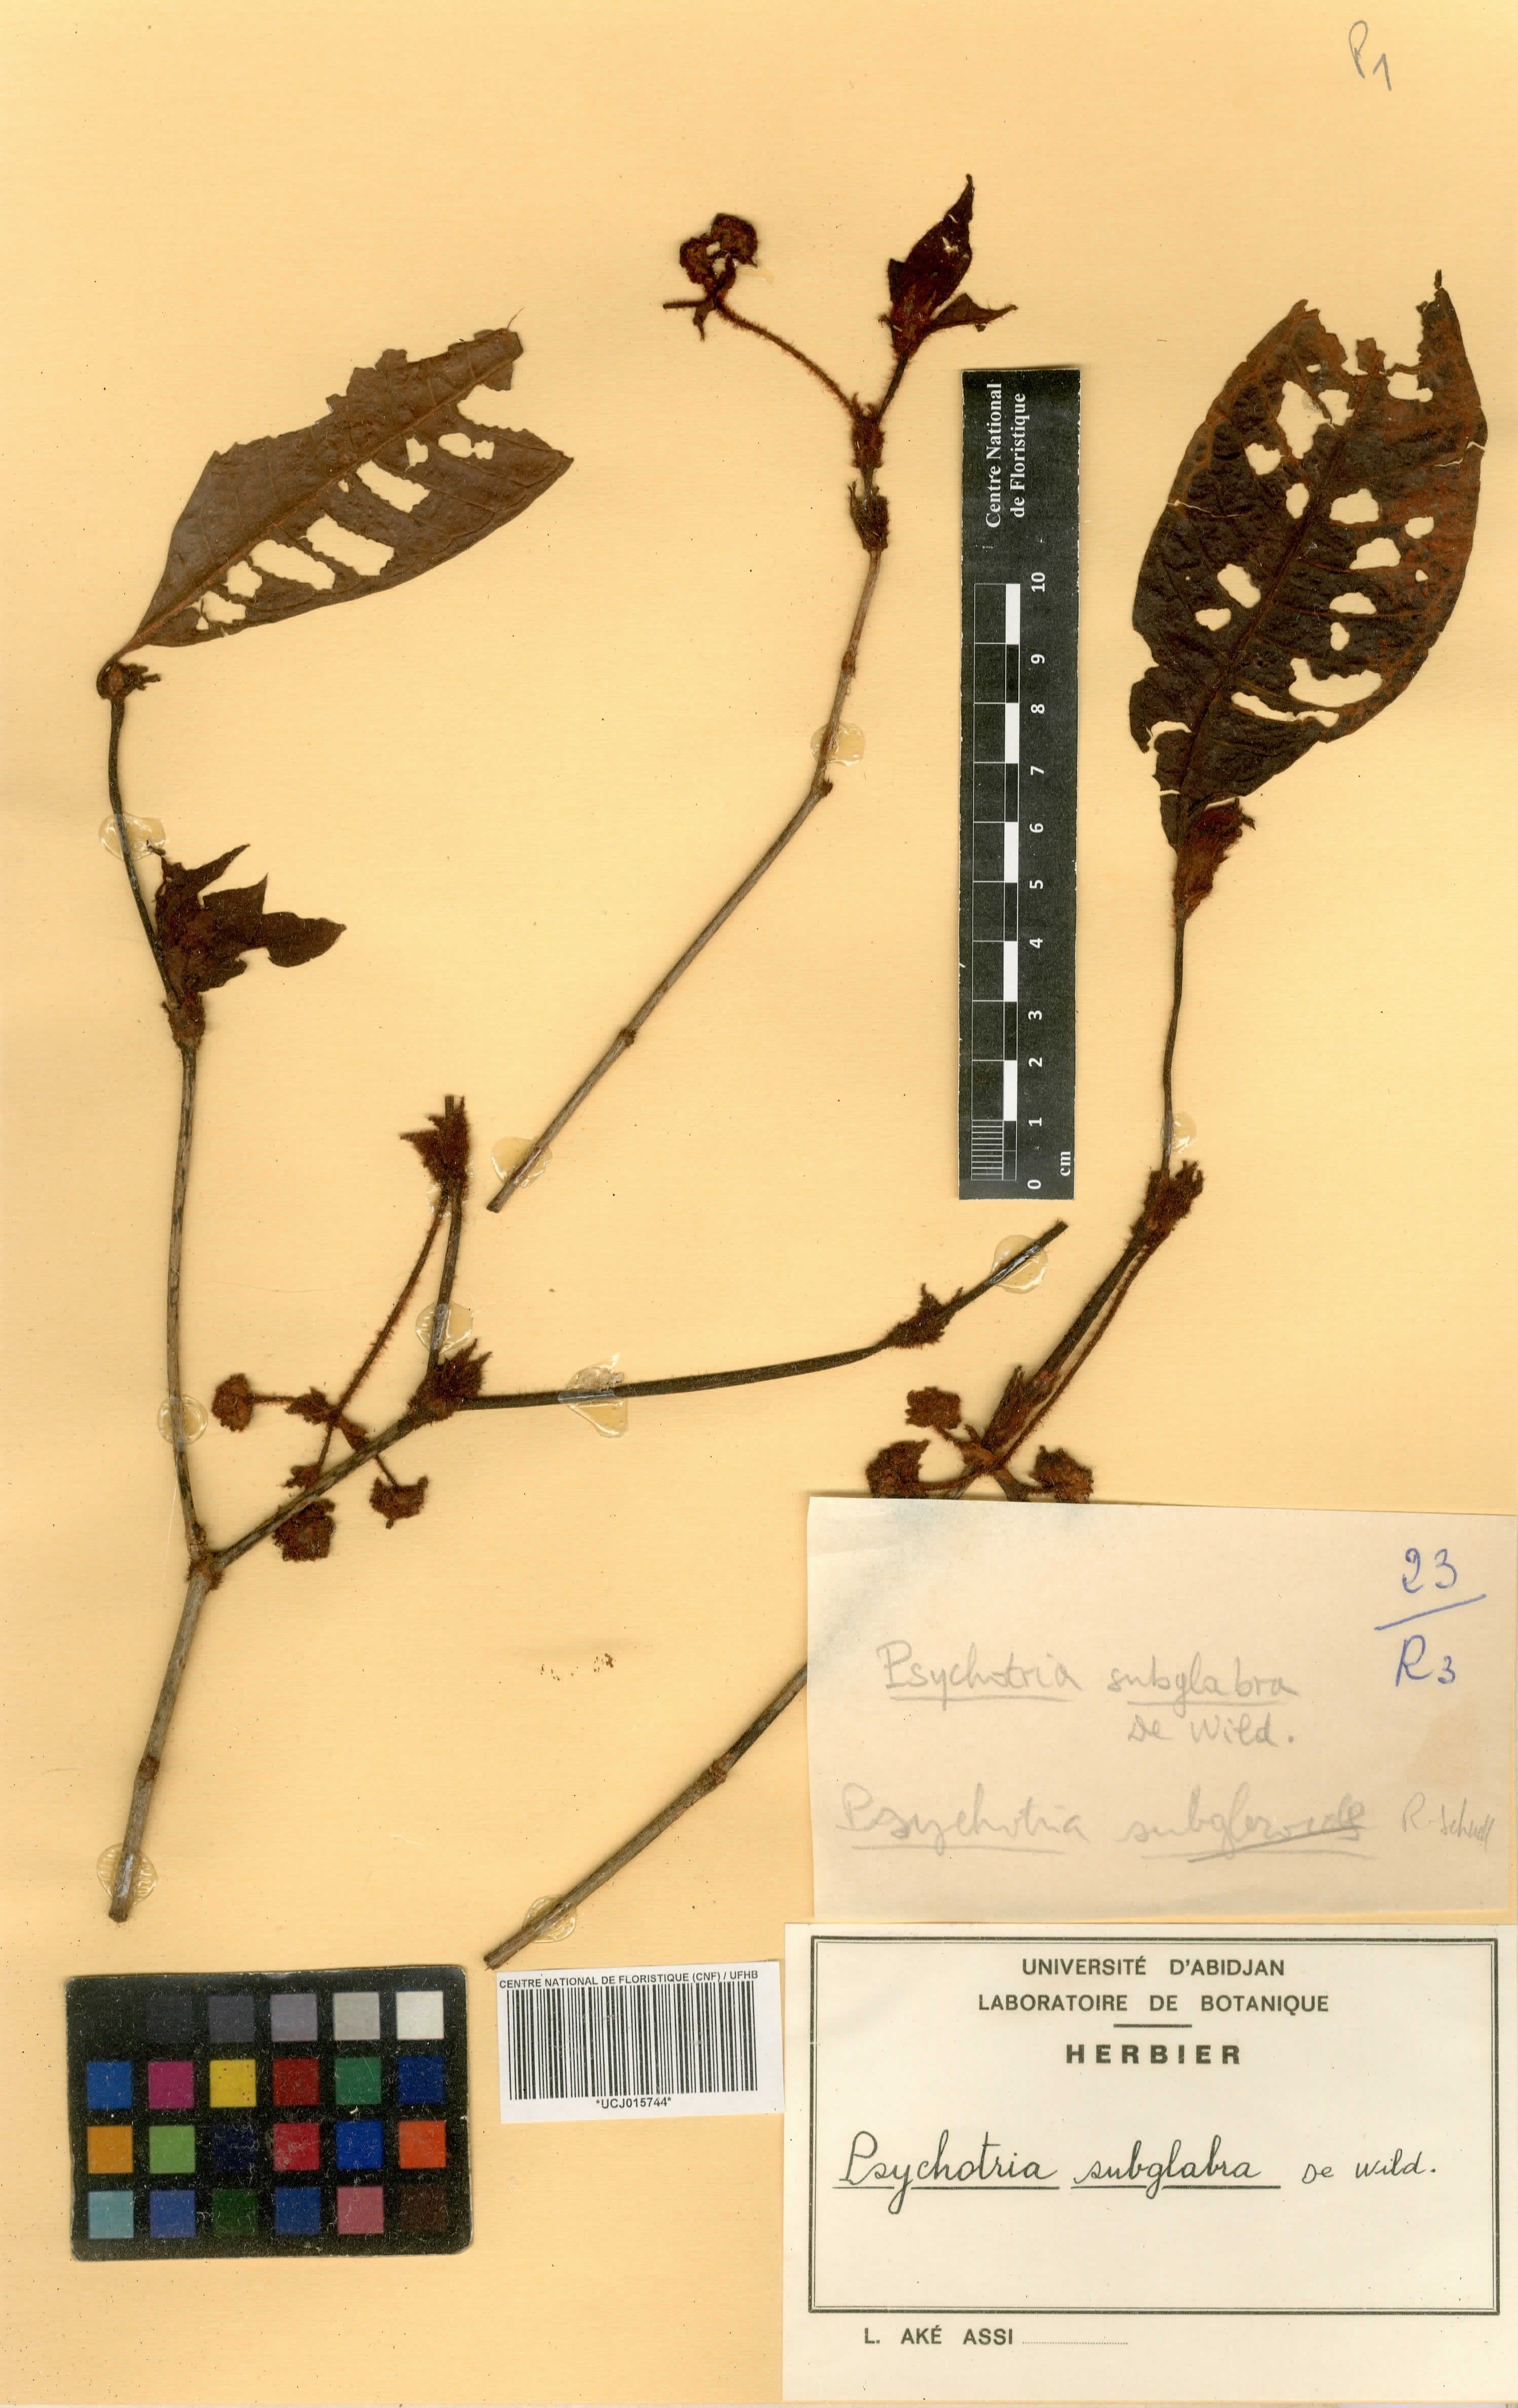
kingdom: Plantae
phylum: Tracheophyta
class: Magnoliopsida
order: Gentianales
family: Rubiaceae
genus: Psychotria
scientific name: Psychotria subglabra
